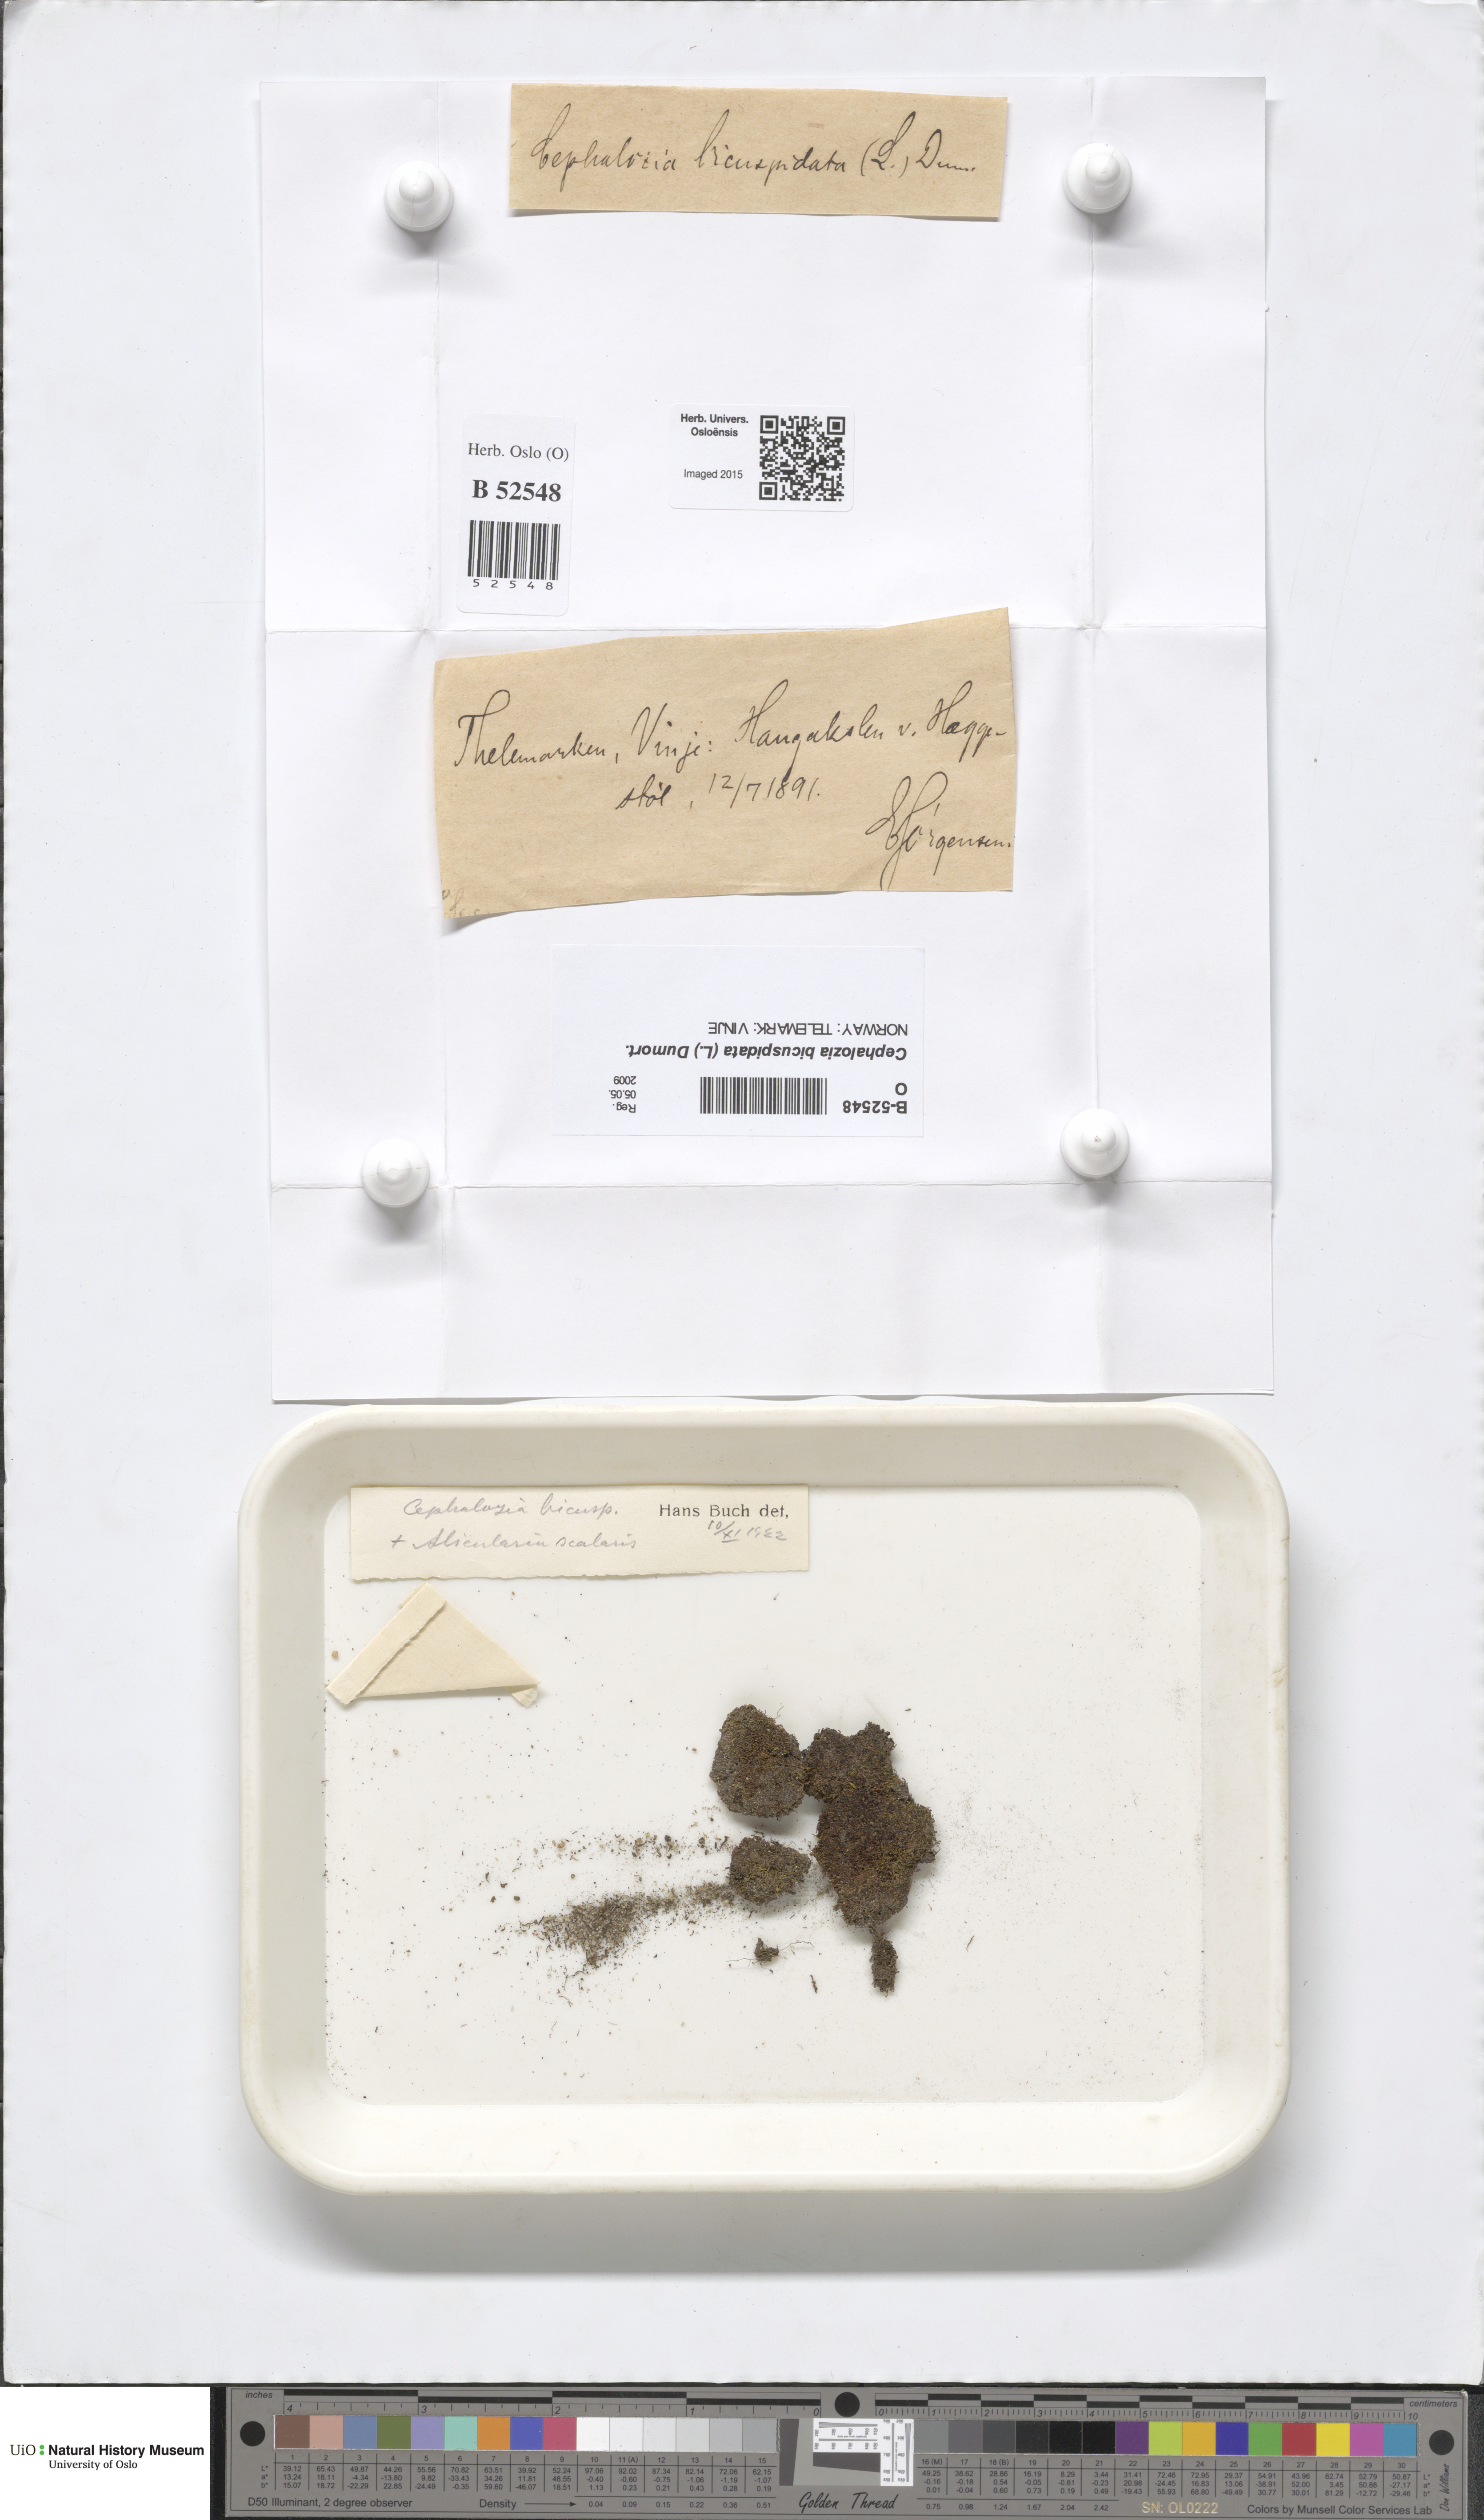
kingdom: Plantae
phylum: Marchantiophyta
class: Jungermanniopsida
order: Jungermanniales
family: Cephaloziaceae
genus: Cephalozia
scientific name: Cephalozia bicuspidata
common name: Two-horned pincerwort
